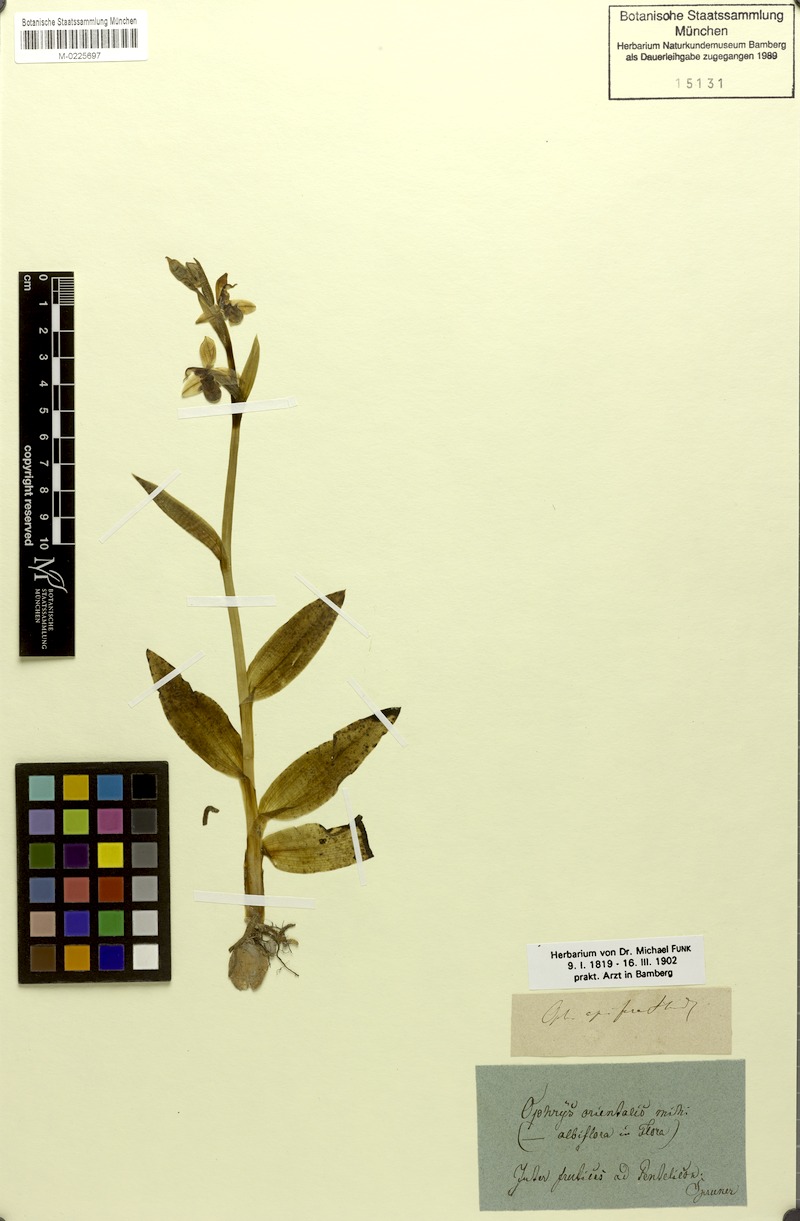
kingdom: Plantae
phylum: Tracheophyta
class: Liliopsida
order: Asparagales
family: Orchidaceae
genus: Ophrys
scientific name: Ophrys apifera
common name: Bee orchid
